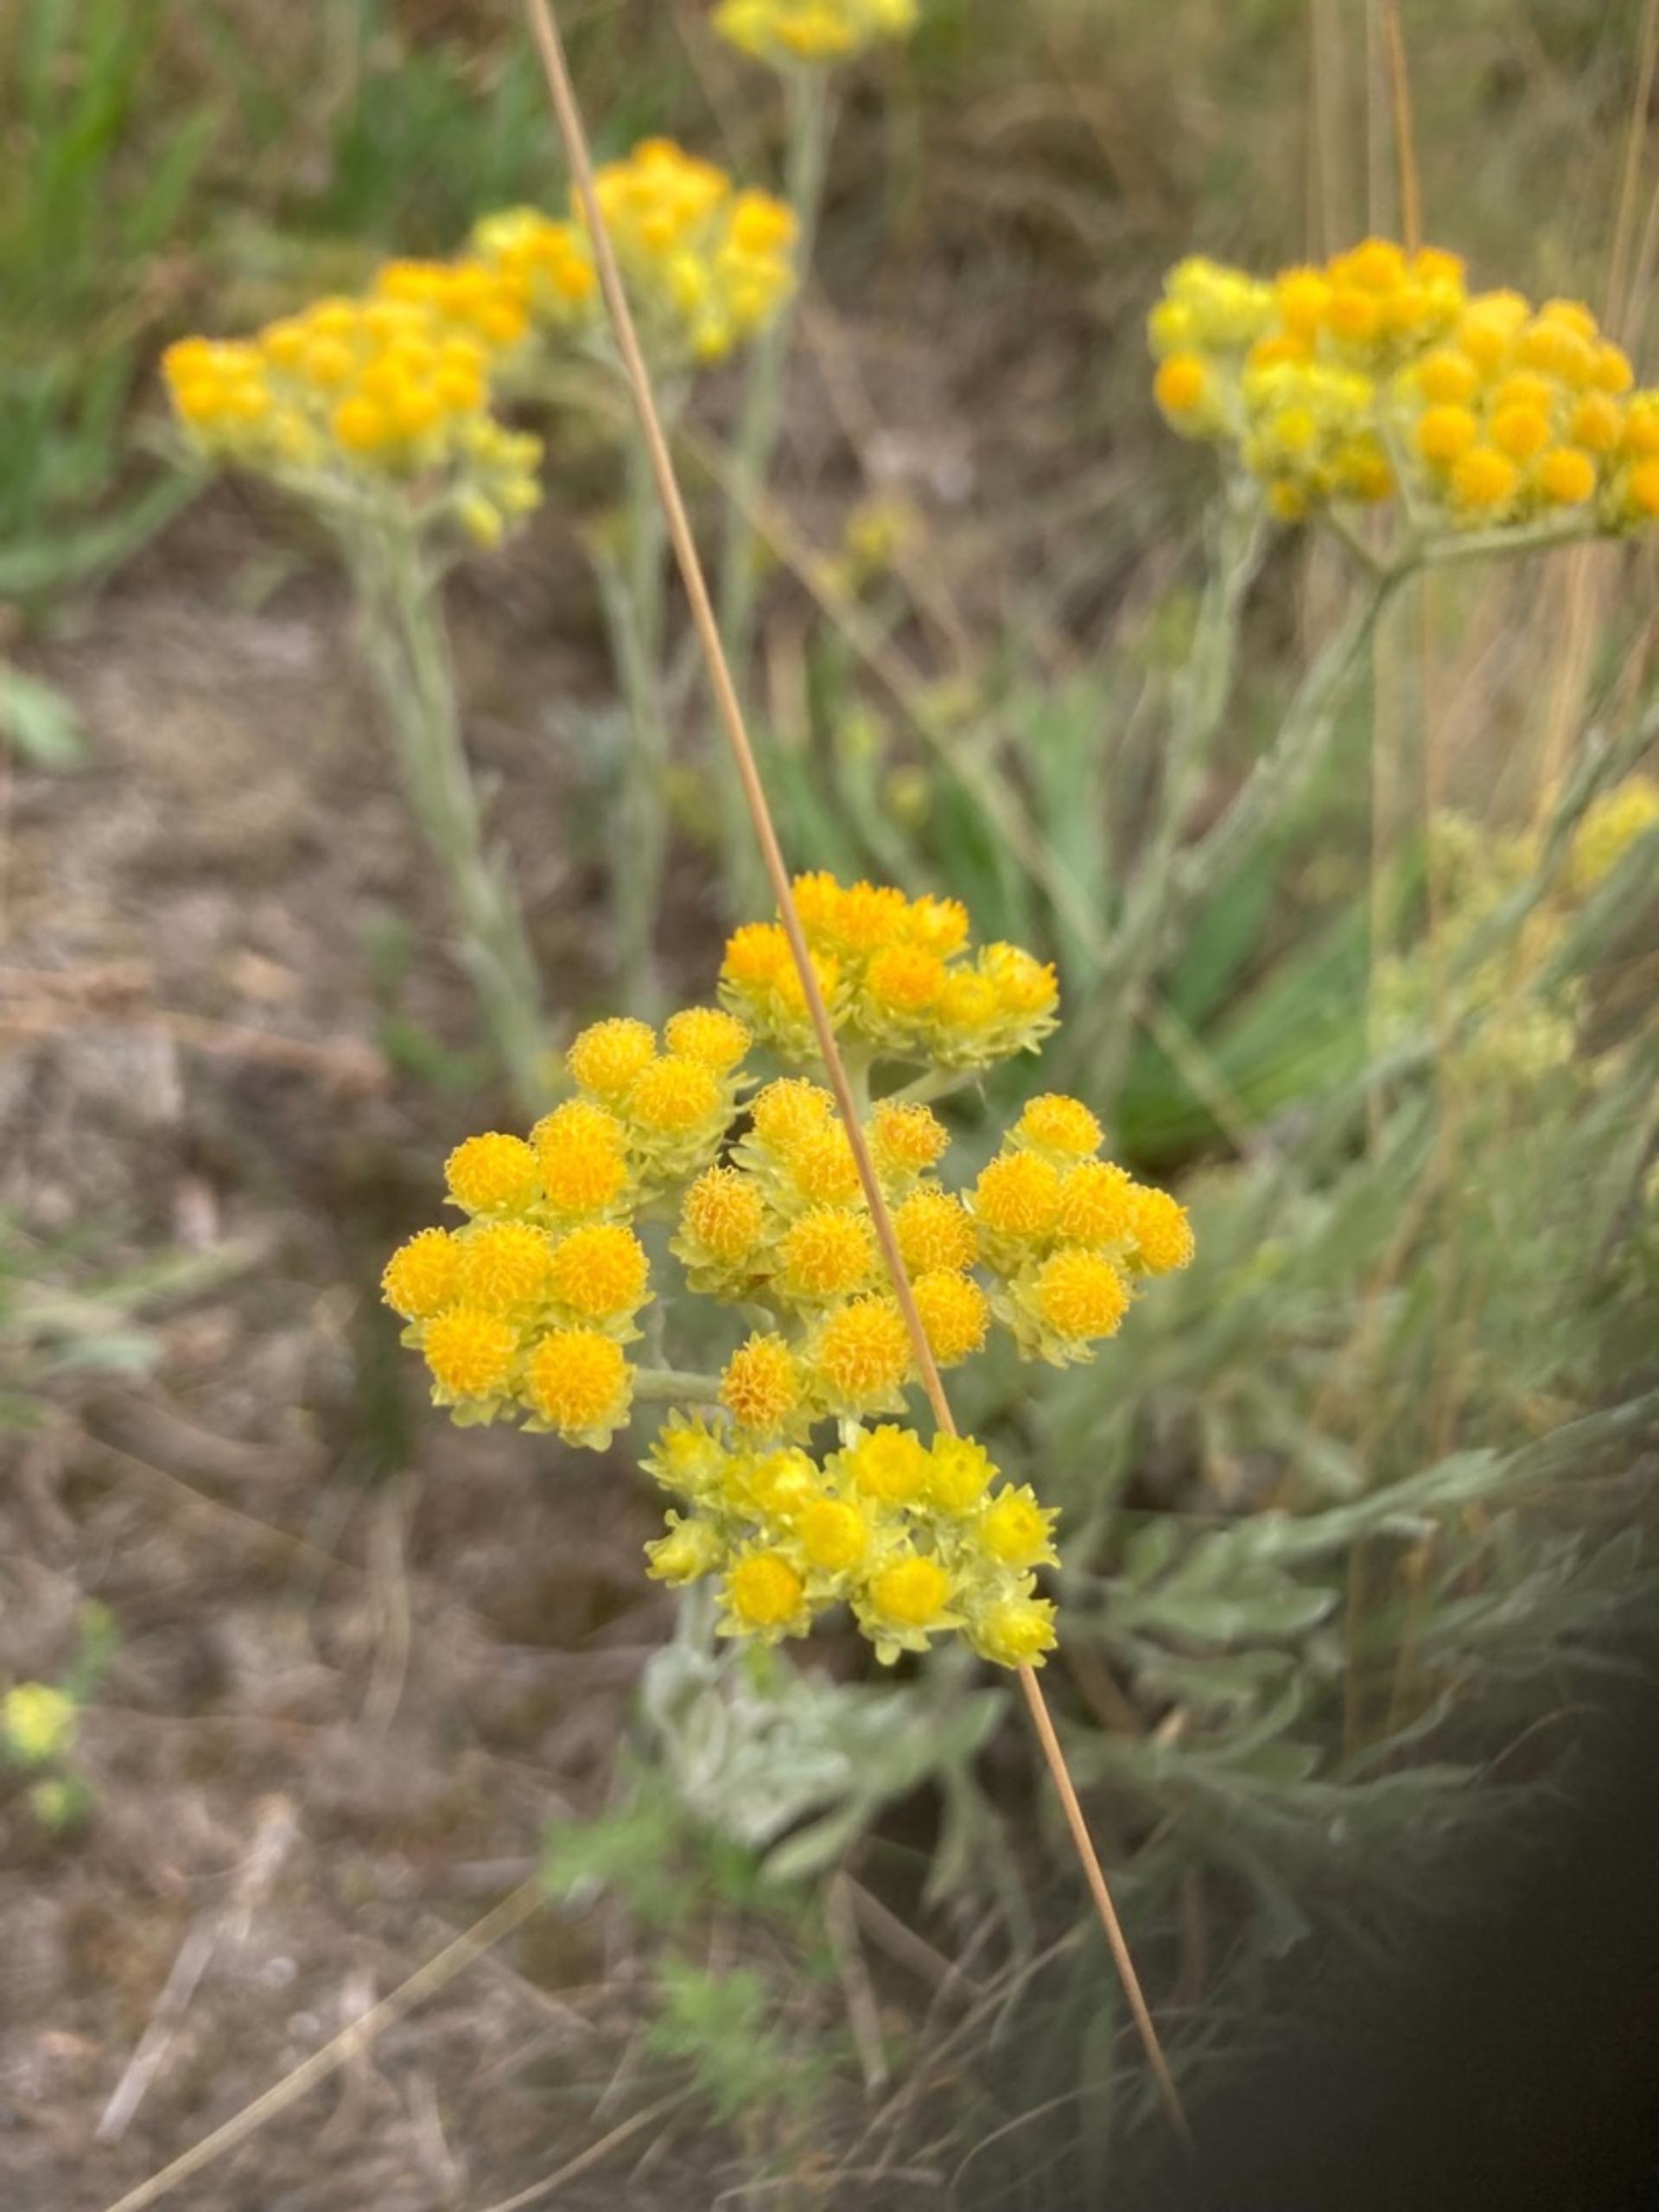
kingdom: Plantae
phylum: Tracheophyta
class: Magnoliopsida
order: Asterales
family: Asteraceae
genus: Helichrysum
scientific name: Helichrysum arenarium
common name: Gul evighedsblomst
